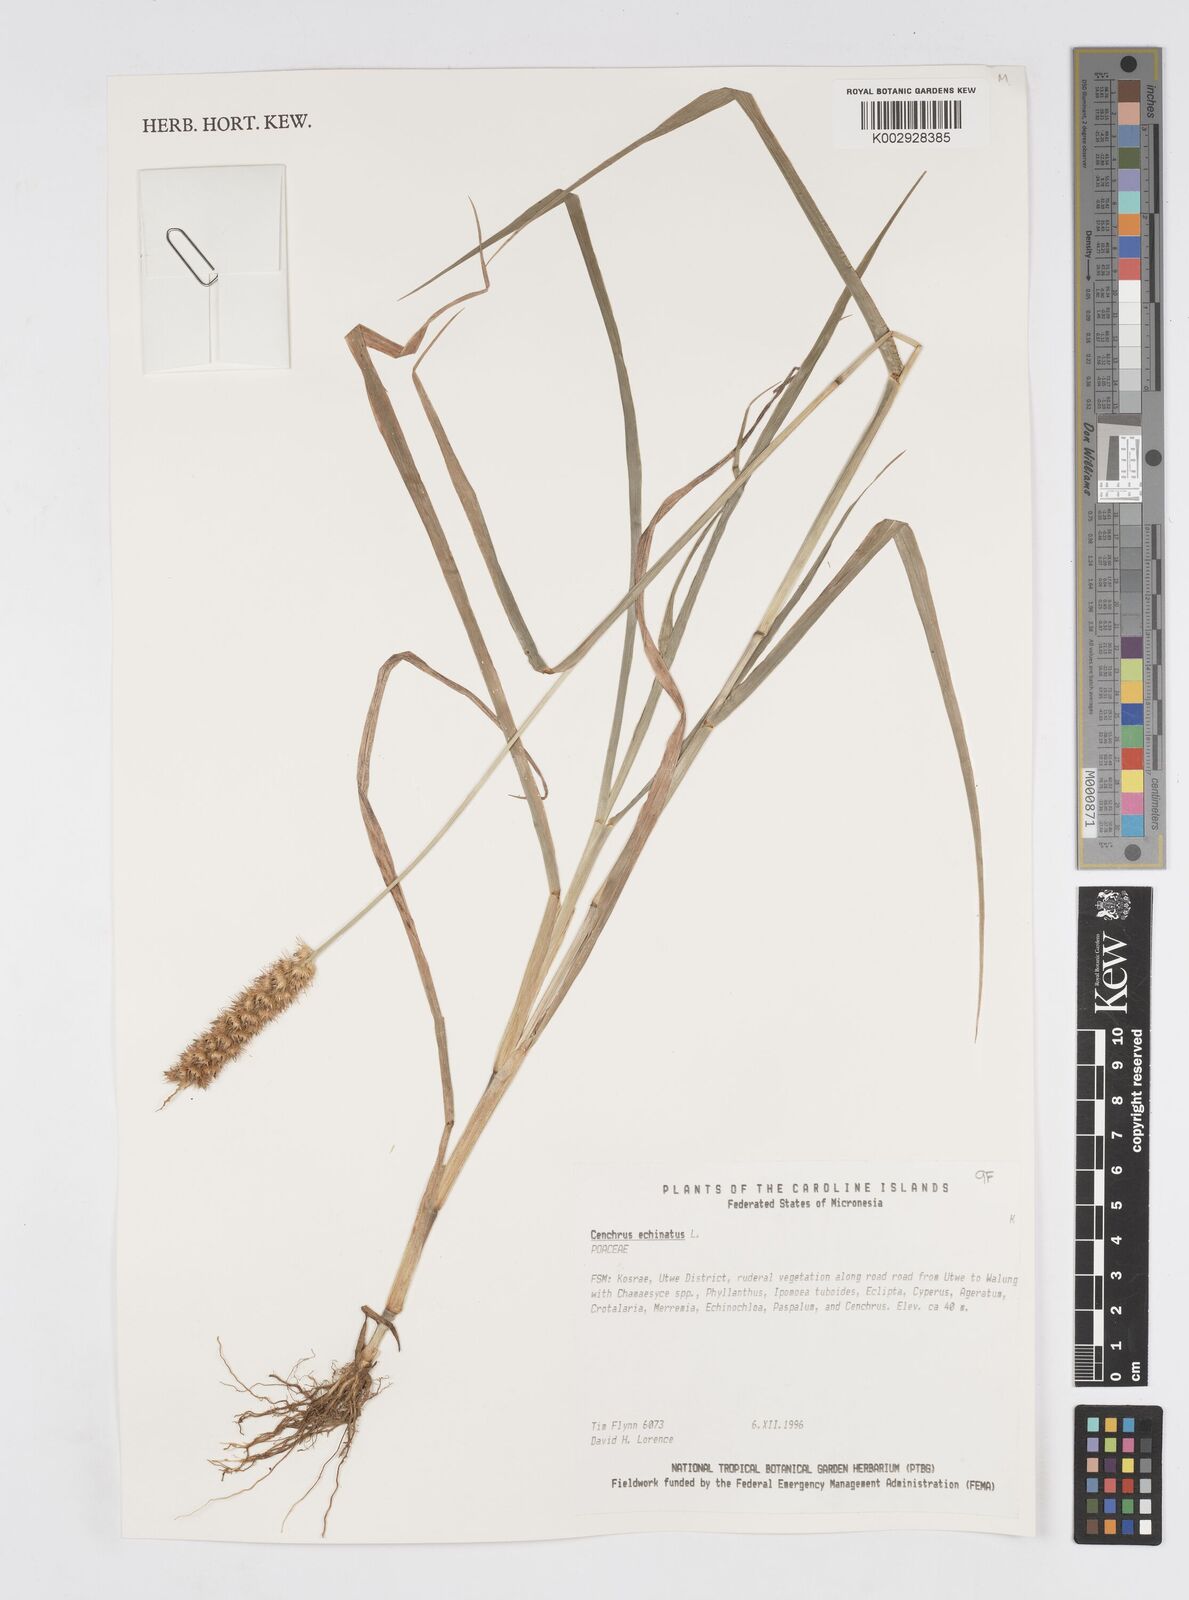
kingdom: Plantae
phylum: Tracheophyta
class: Liliopsida
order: Poales
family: Poaceae
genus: Cenchrus
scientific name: Cenchrus echinatus
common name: Southern sandbur
